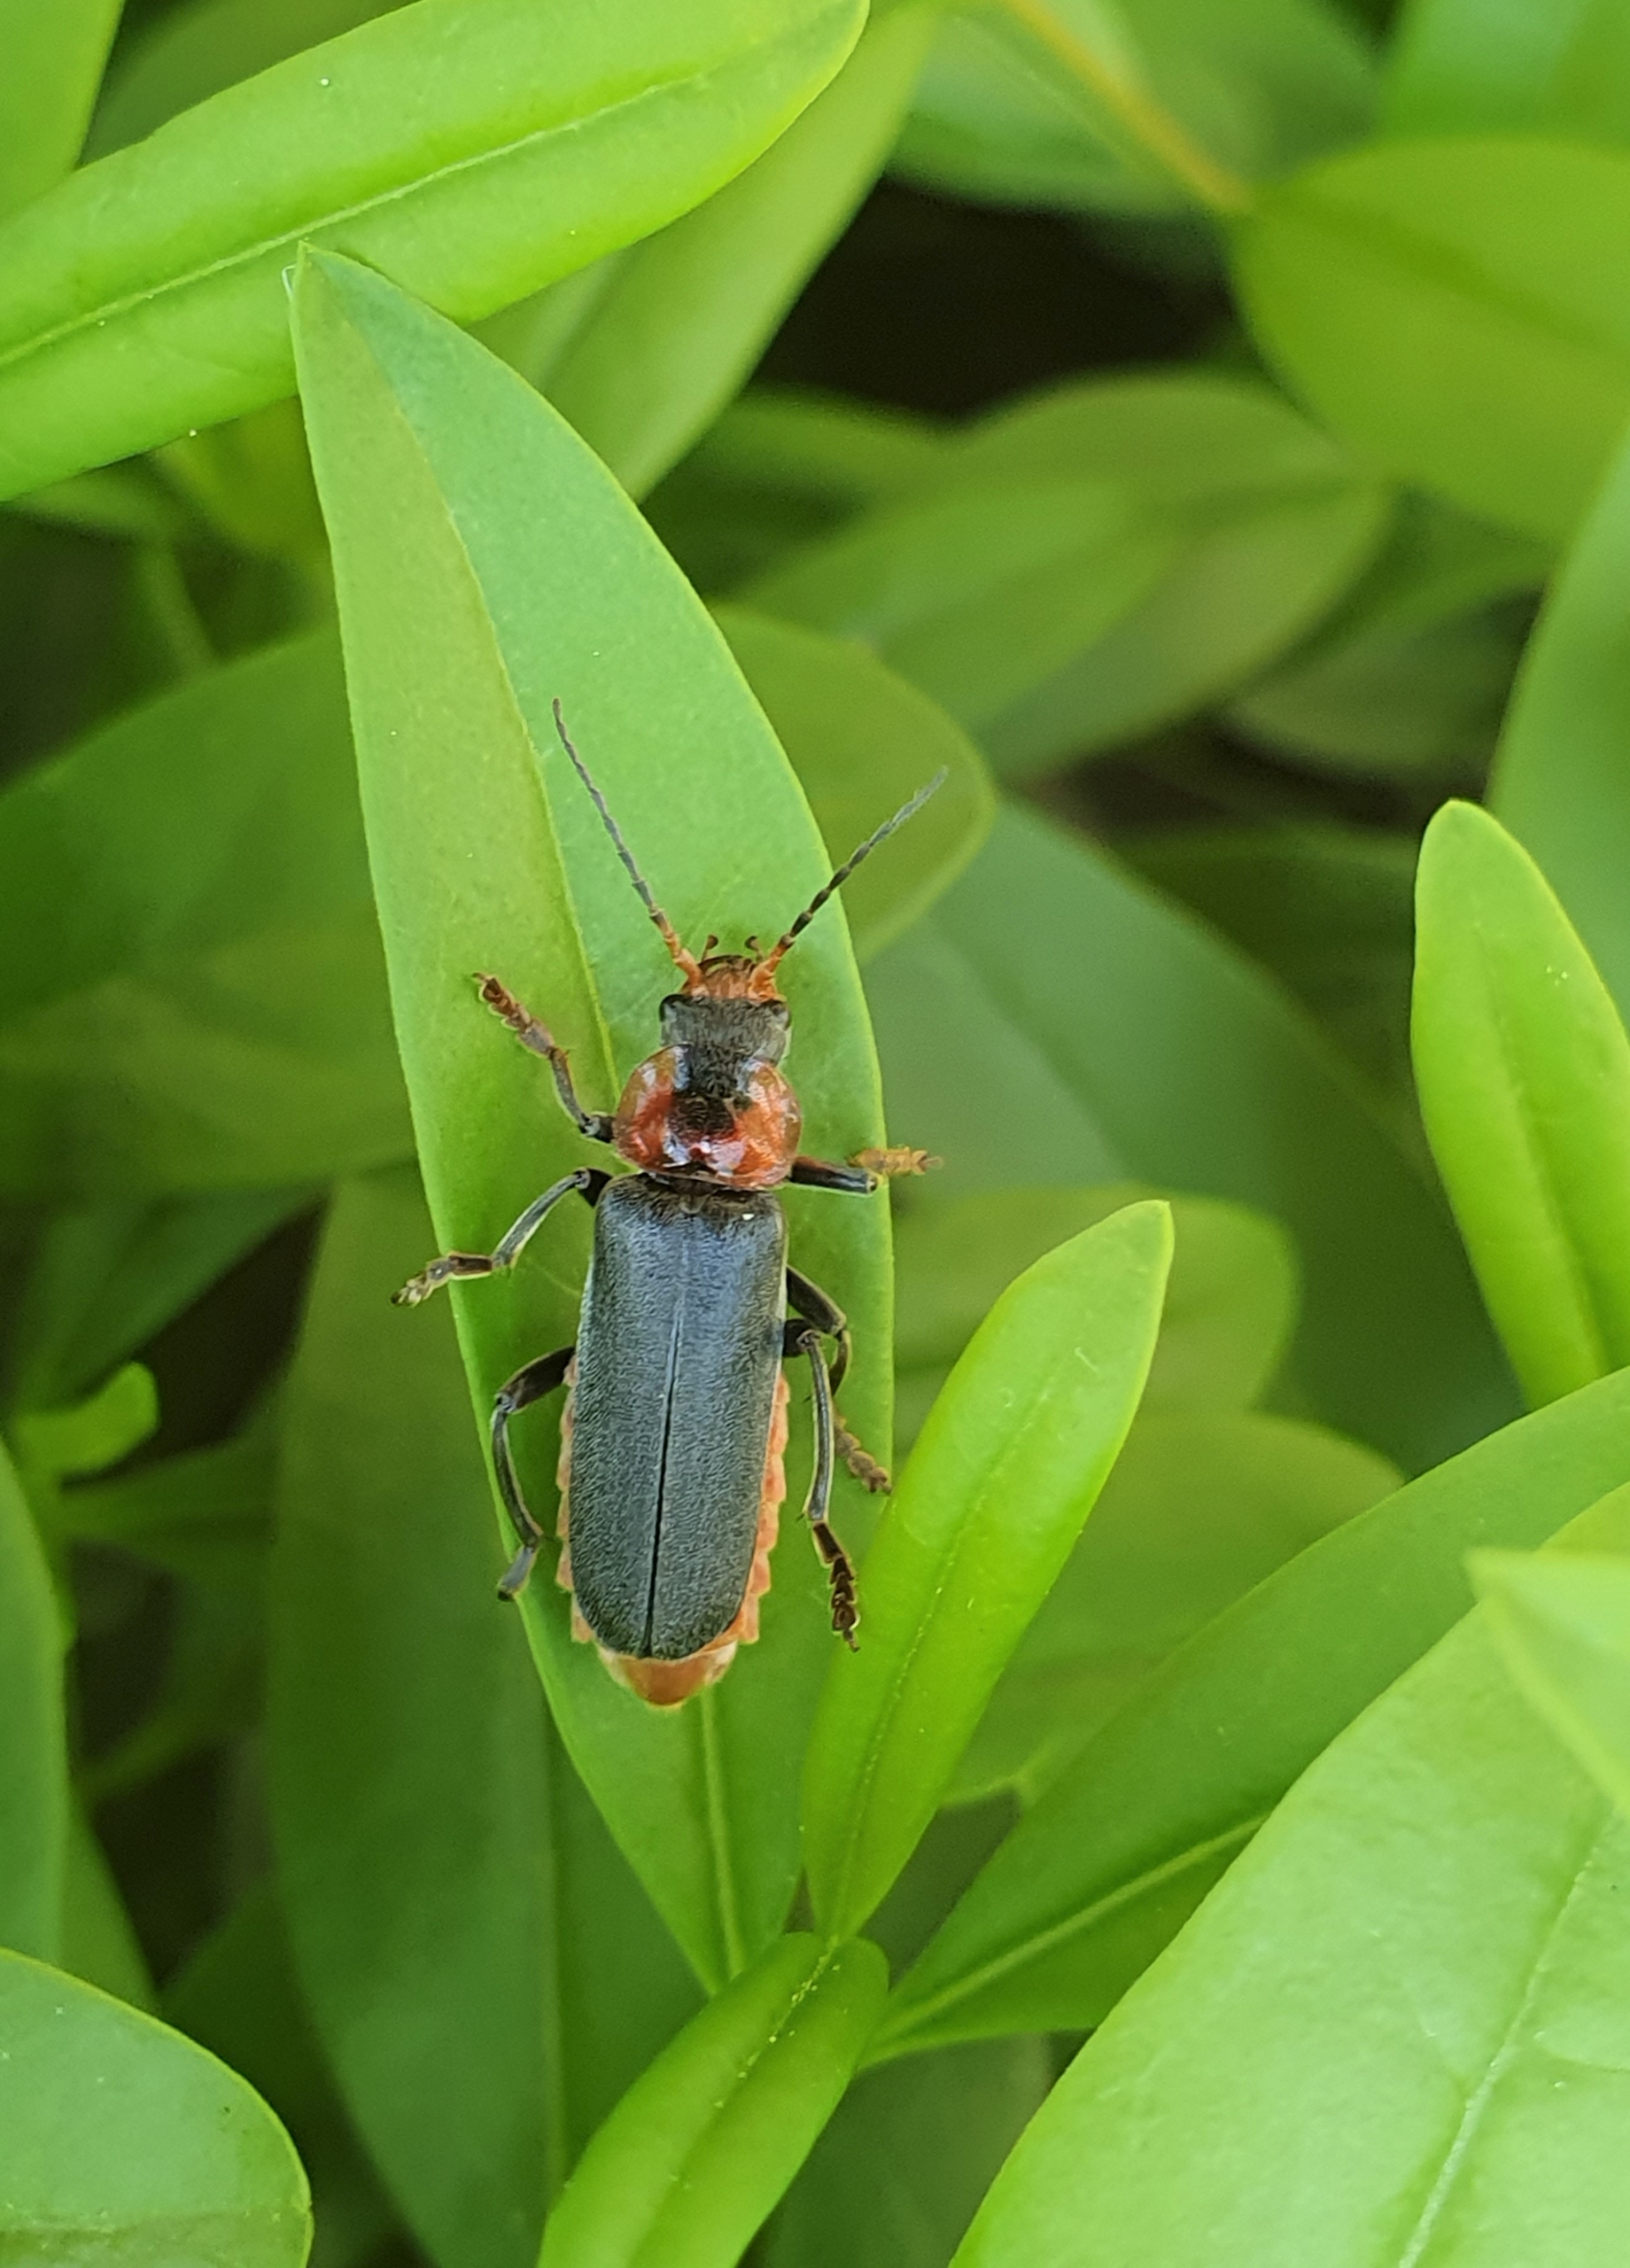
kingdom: Animalia
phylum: Arthropoda
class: Insecta
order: Coleoptera
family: Cantharidae
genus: Cantharis
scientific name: Cantharis fusca
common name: Stor blødvinge
